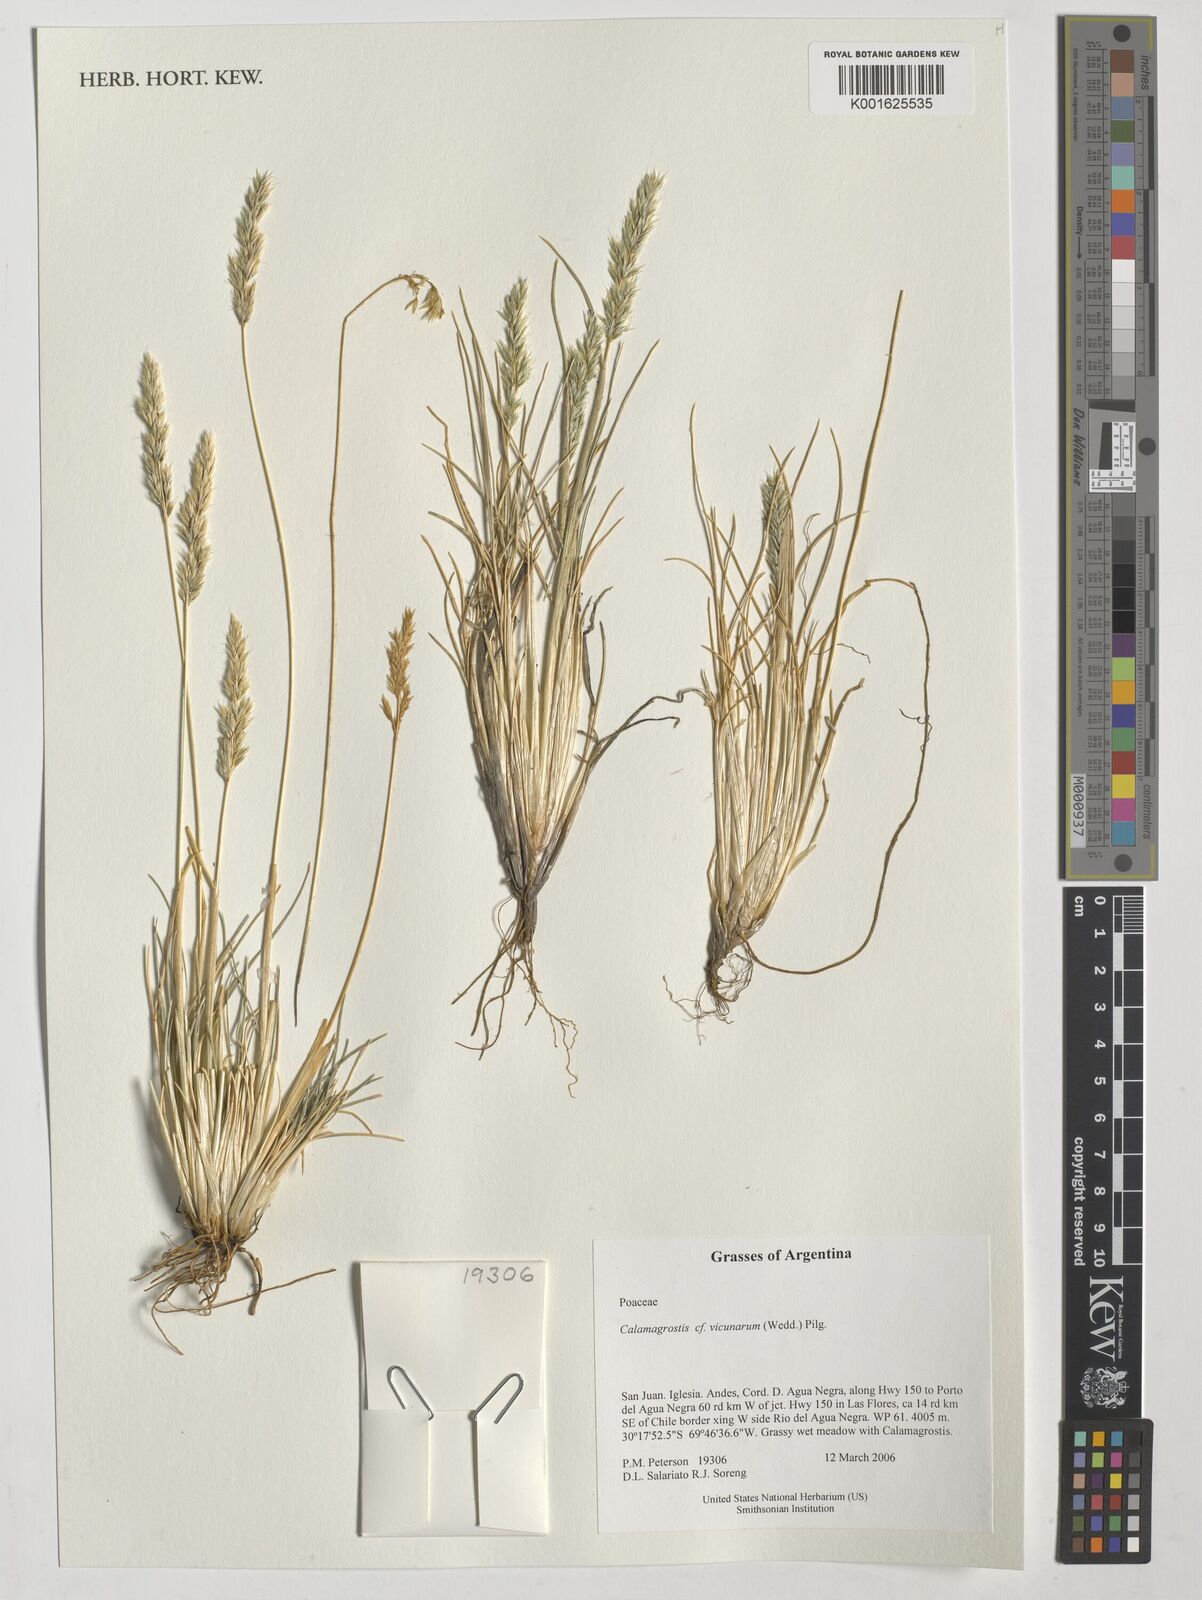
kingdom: Plantae
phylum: Tracheophyta
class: Liliopsida
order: Poales
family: Poaceae
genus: Cinnagrostis
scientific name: Cinnagrostis vicunarum
